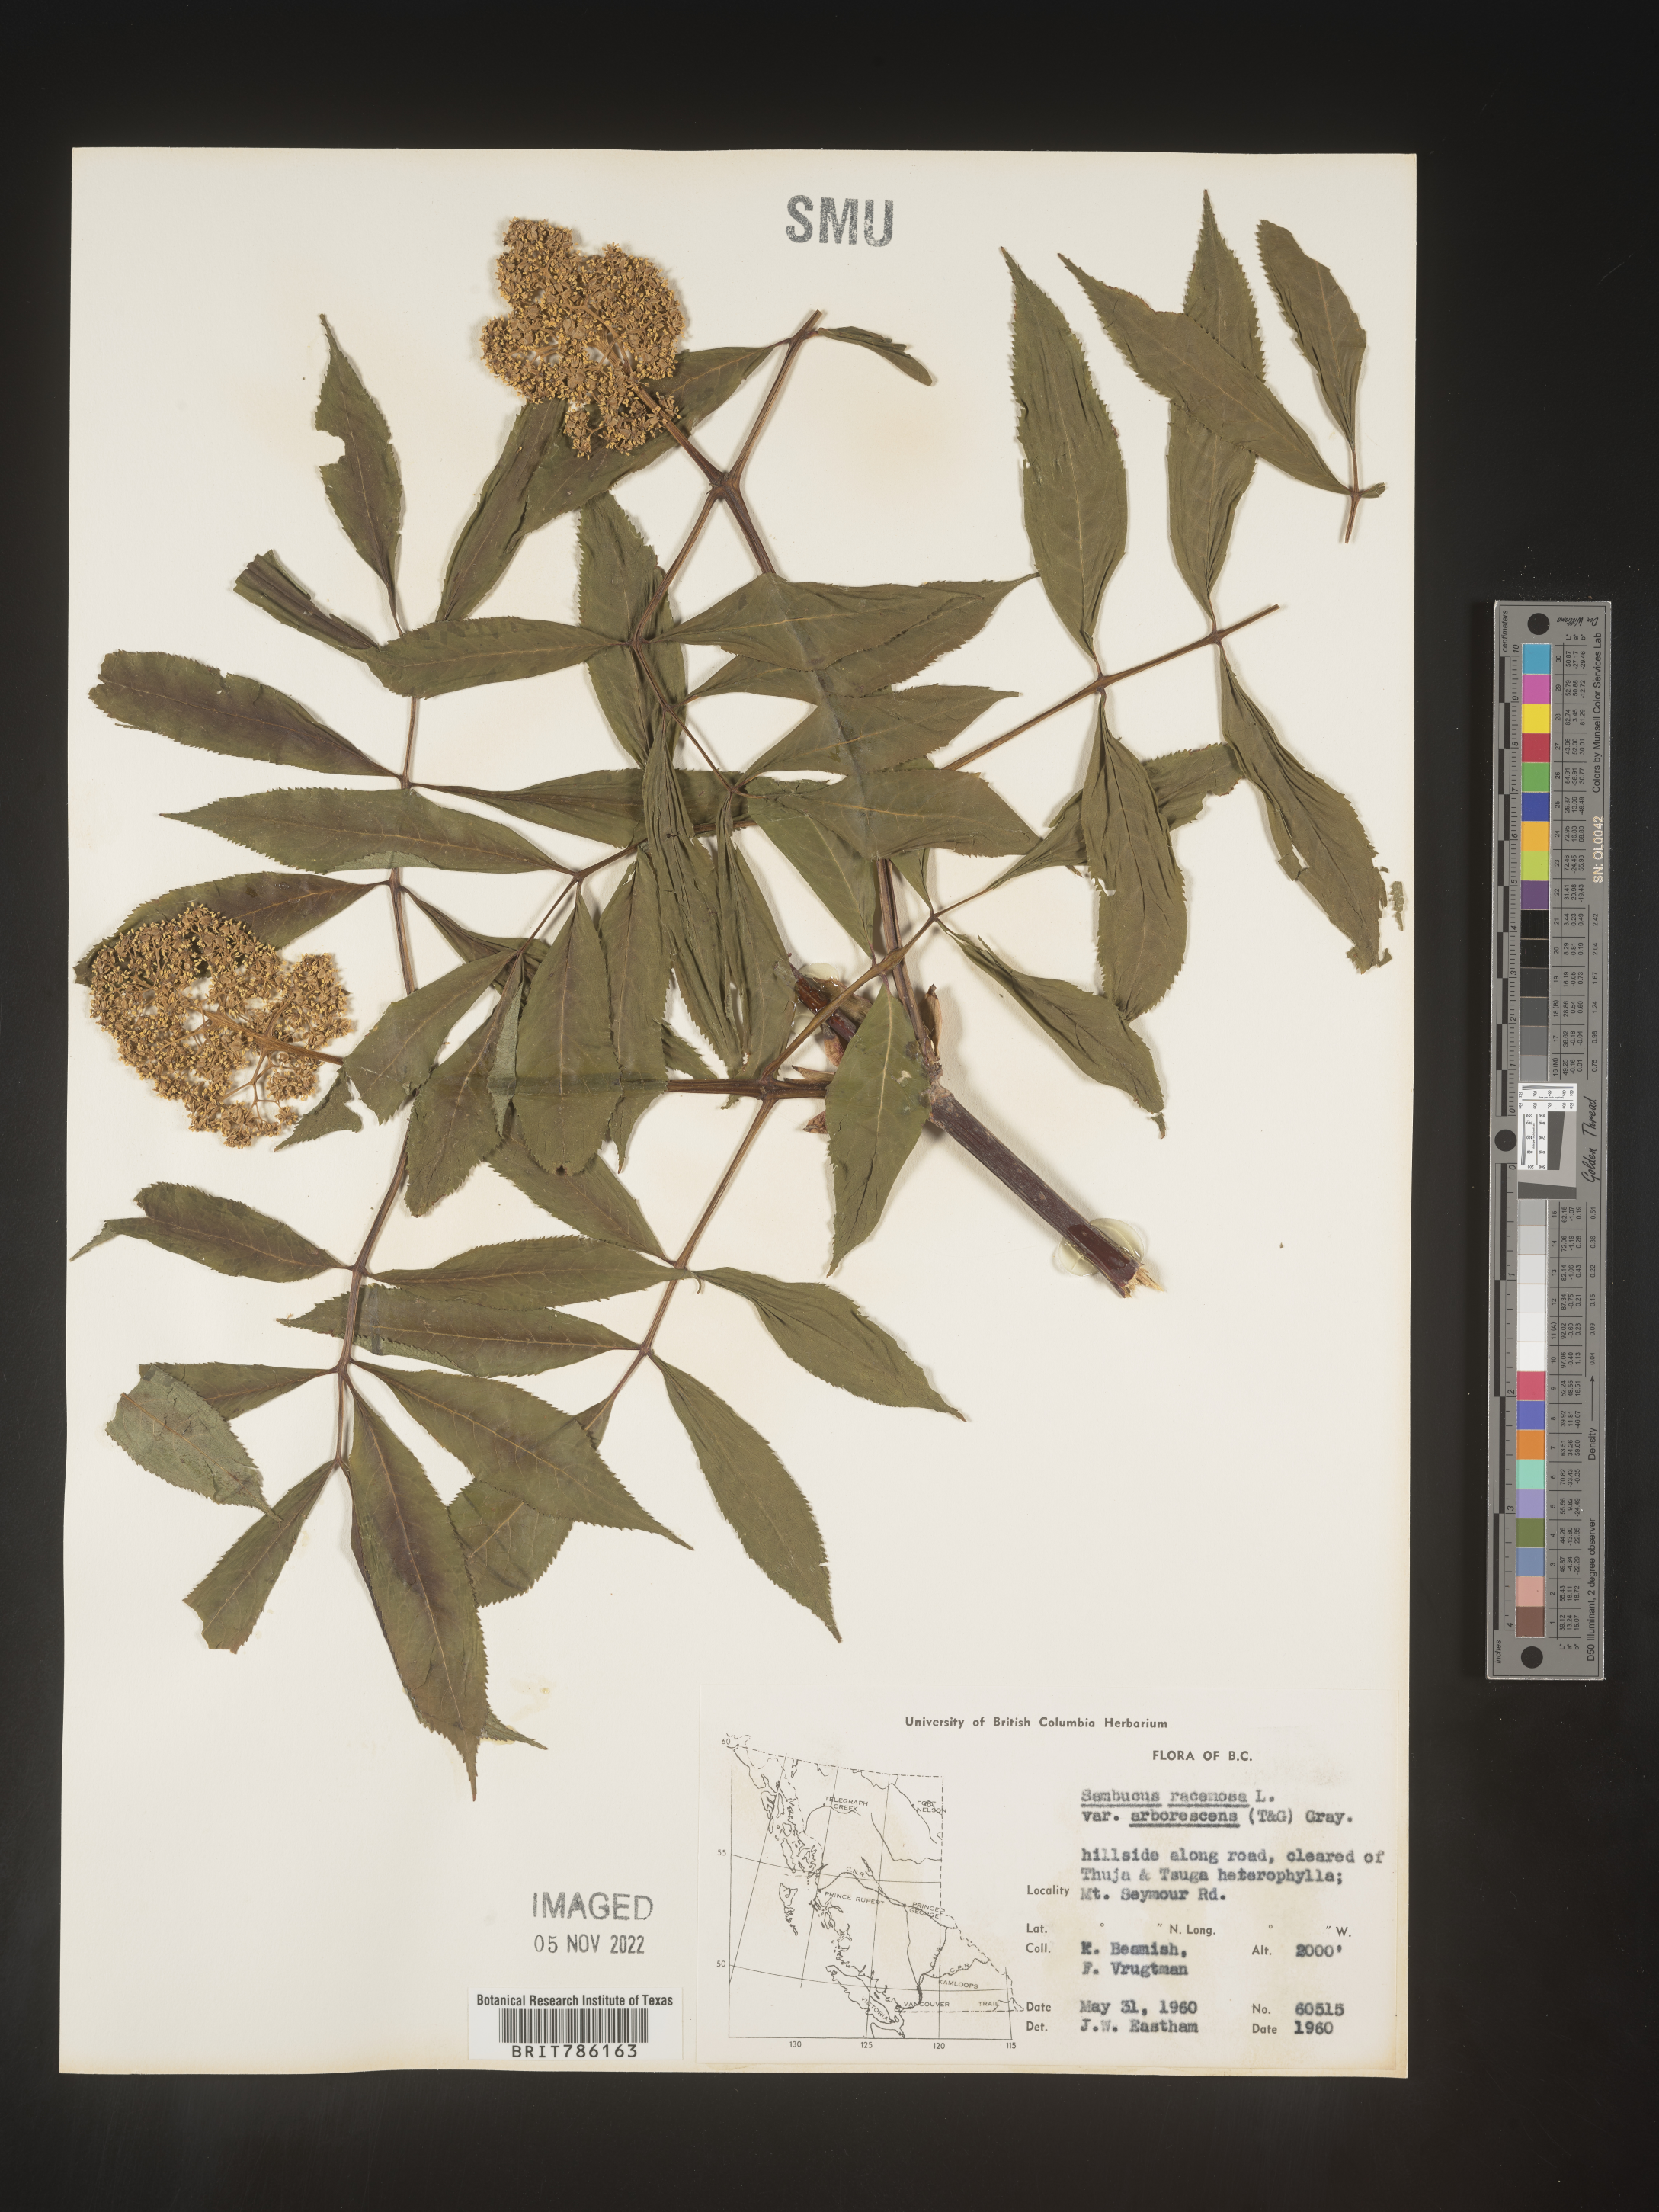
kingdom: Plantae
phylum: Tracheophyta
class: Magnoliopsida
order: Dipsacales
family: Viburnaceae
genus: Sambucus
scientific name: Sambucus
